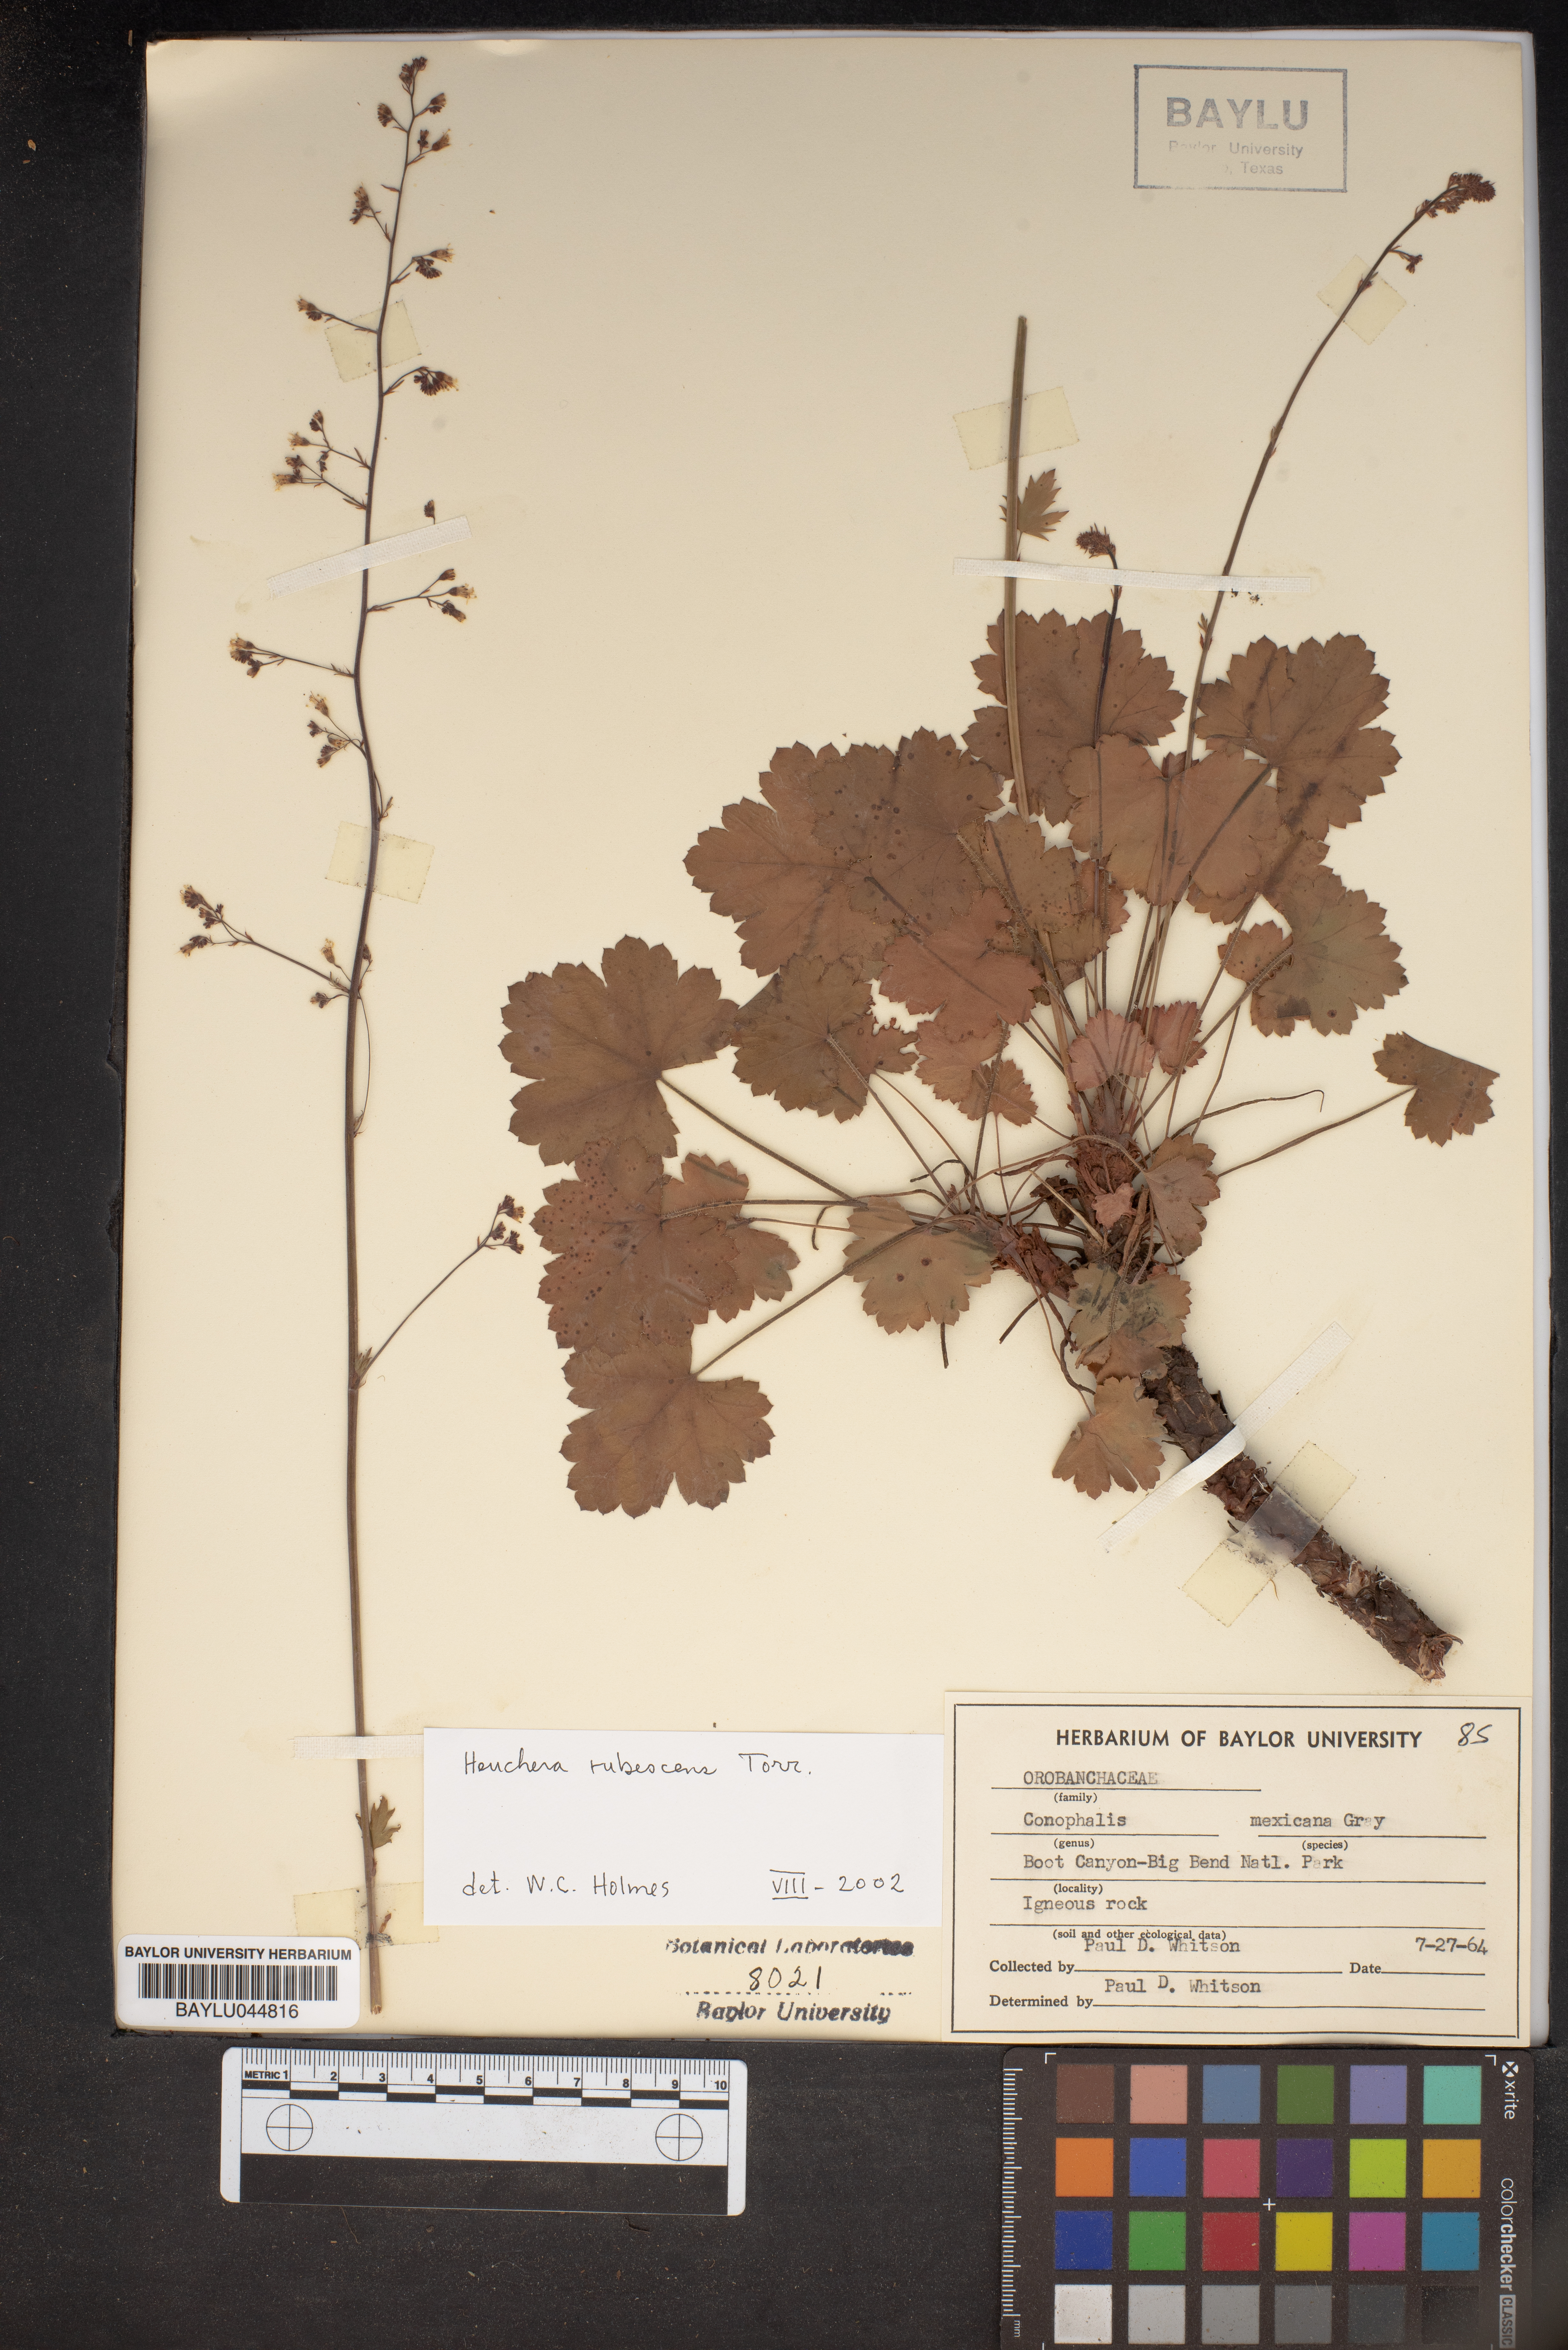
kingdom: Plantae
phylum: Tracheophyta
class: Magnoliopsida
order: Saxifragales
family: Saxifragaceae
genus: Heuchera
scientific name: Heuchera rubescens
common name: Jack-o'the-rocks
